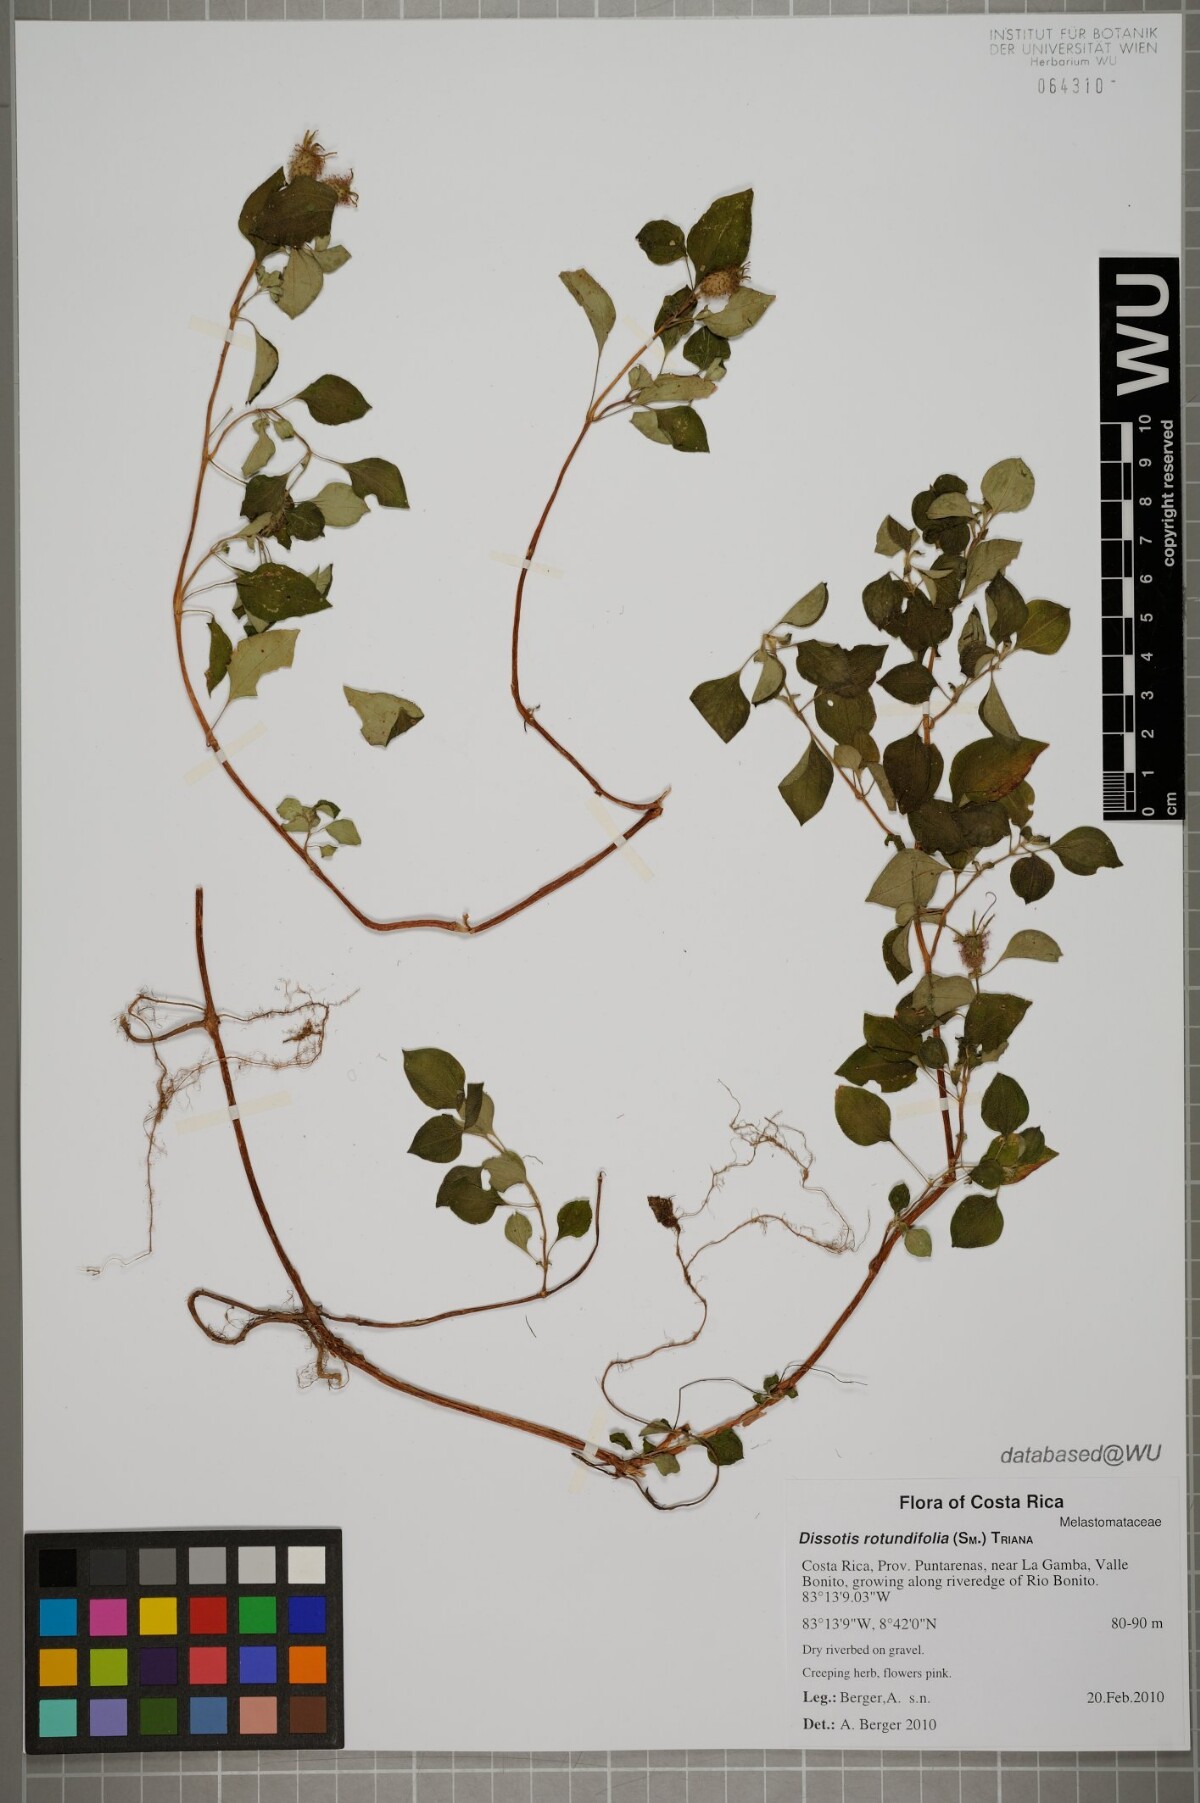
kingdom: Plantae
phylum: Tracheophyta
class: Magnoliopsida
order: Myrtales
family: Melastomataceae
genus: Heterotis
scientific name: Heterotis rotundifolia
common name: Pinklady
